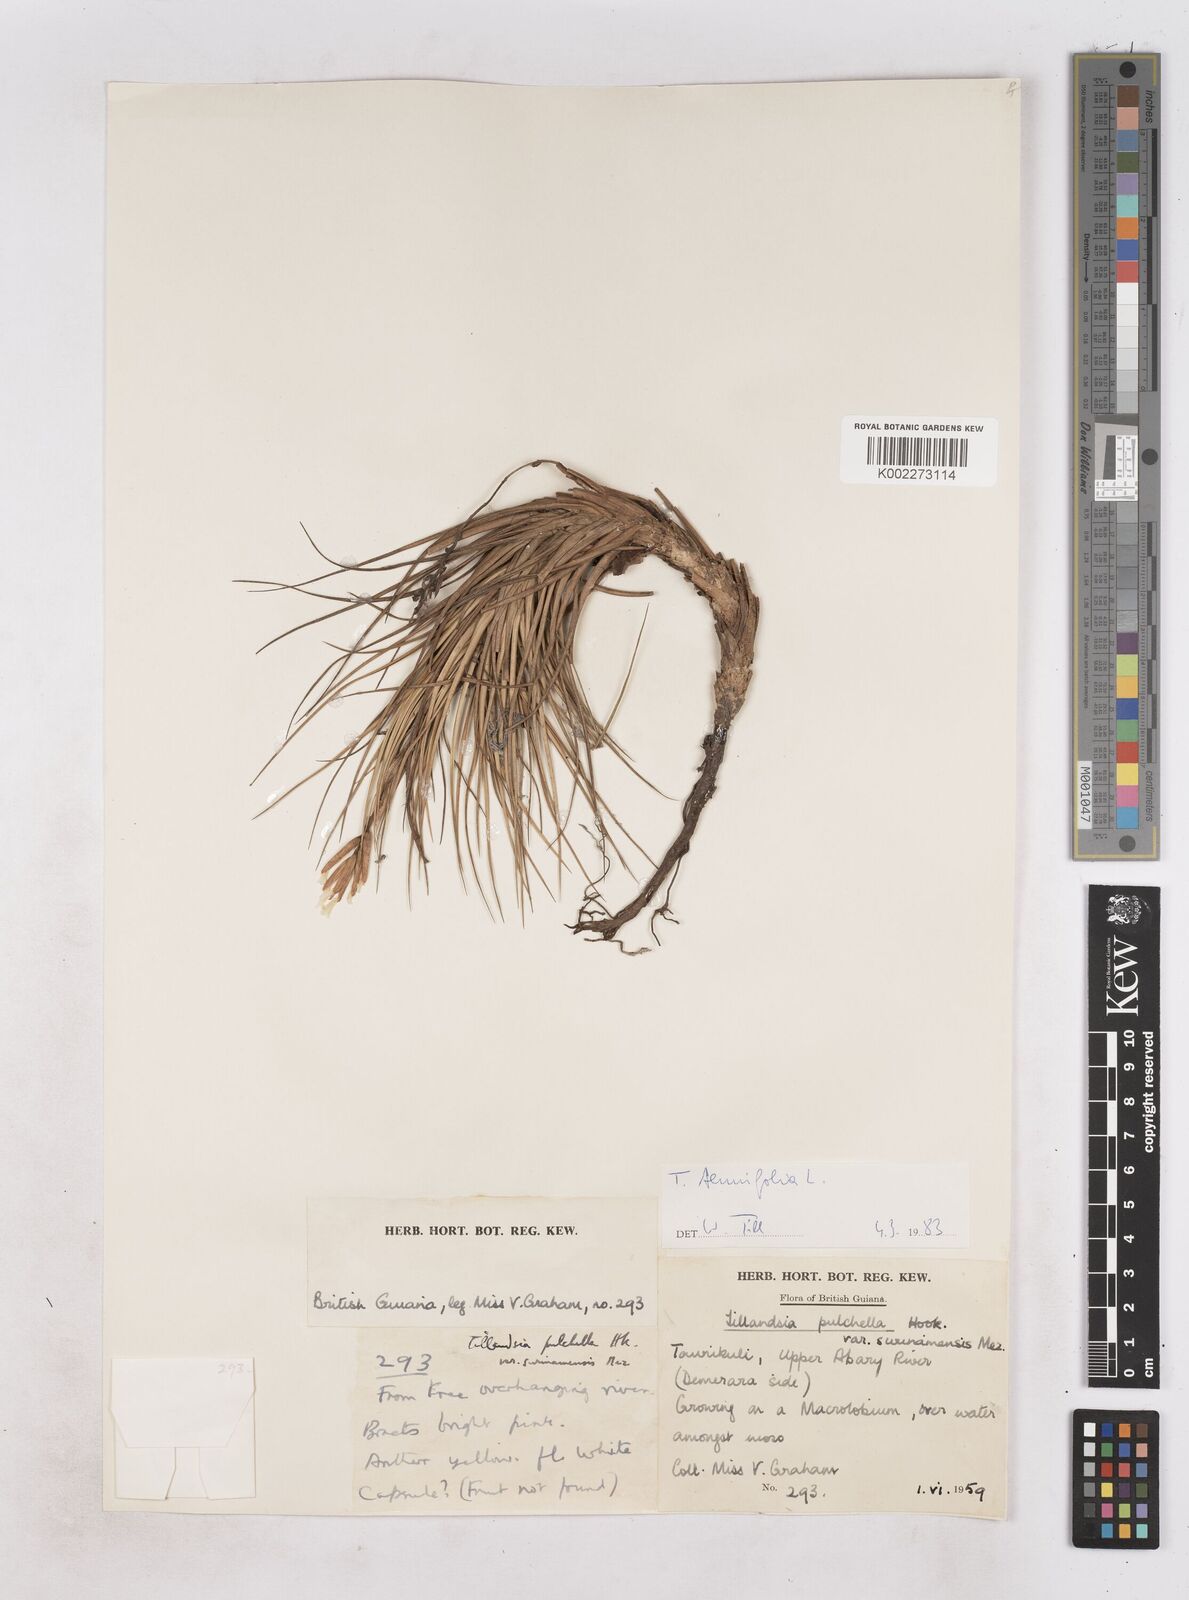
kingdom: Plantae
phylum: Tracheophyta
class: Liliopsida
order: Poales
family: Bromeliaceae
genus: Tillandsia
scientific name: Tillandsia tenuifolia
